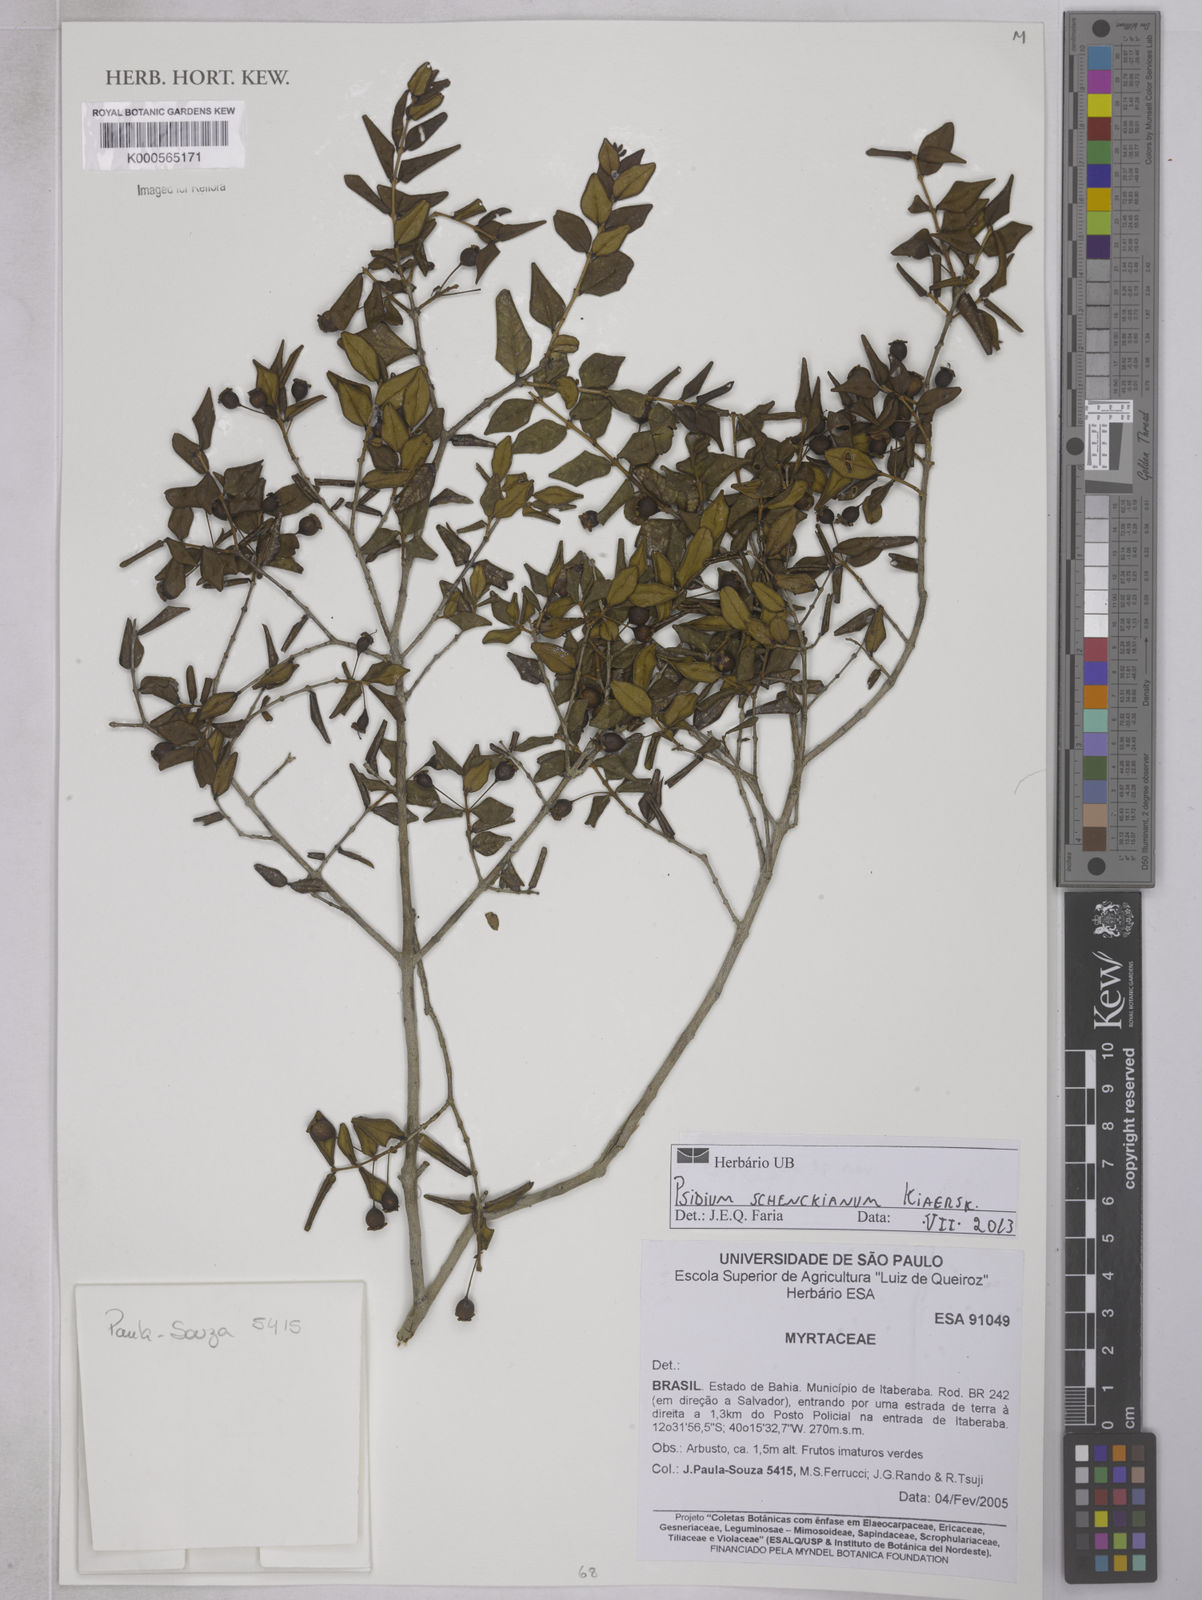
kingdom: Plantae
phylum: Tracheophyta
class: Magnoliopsida
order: Myrtales
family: Myrtaceae
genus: Psidium
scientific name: Psidium schenckianum
